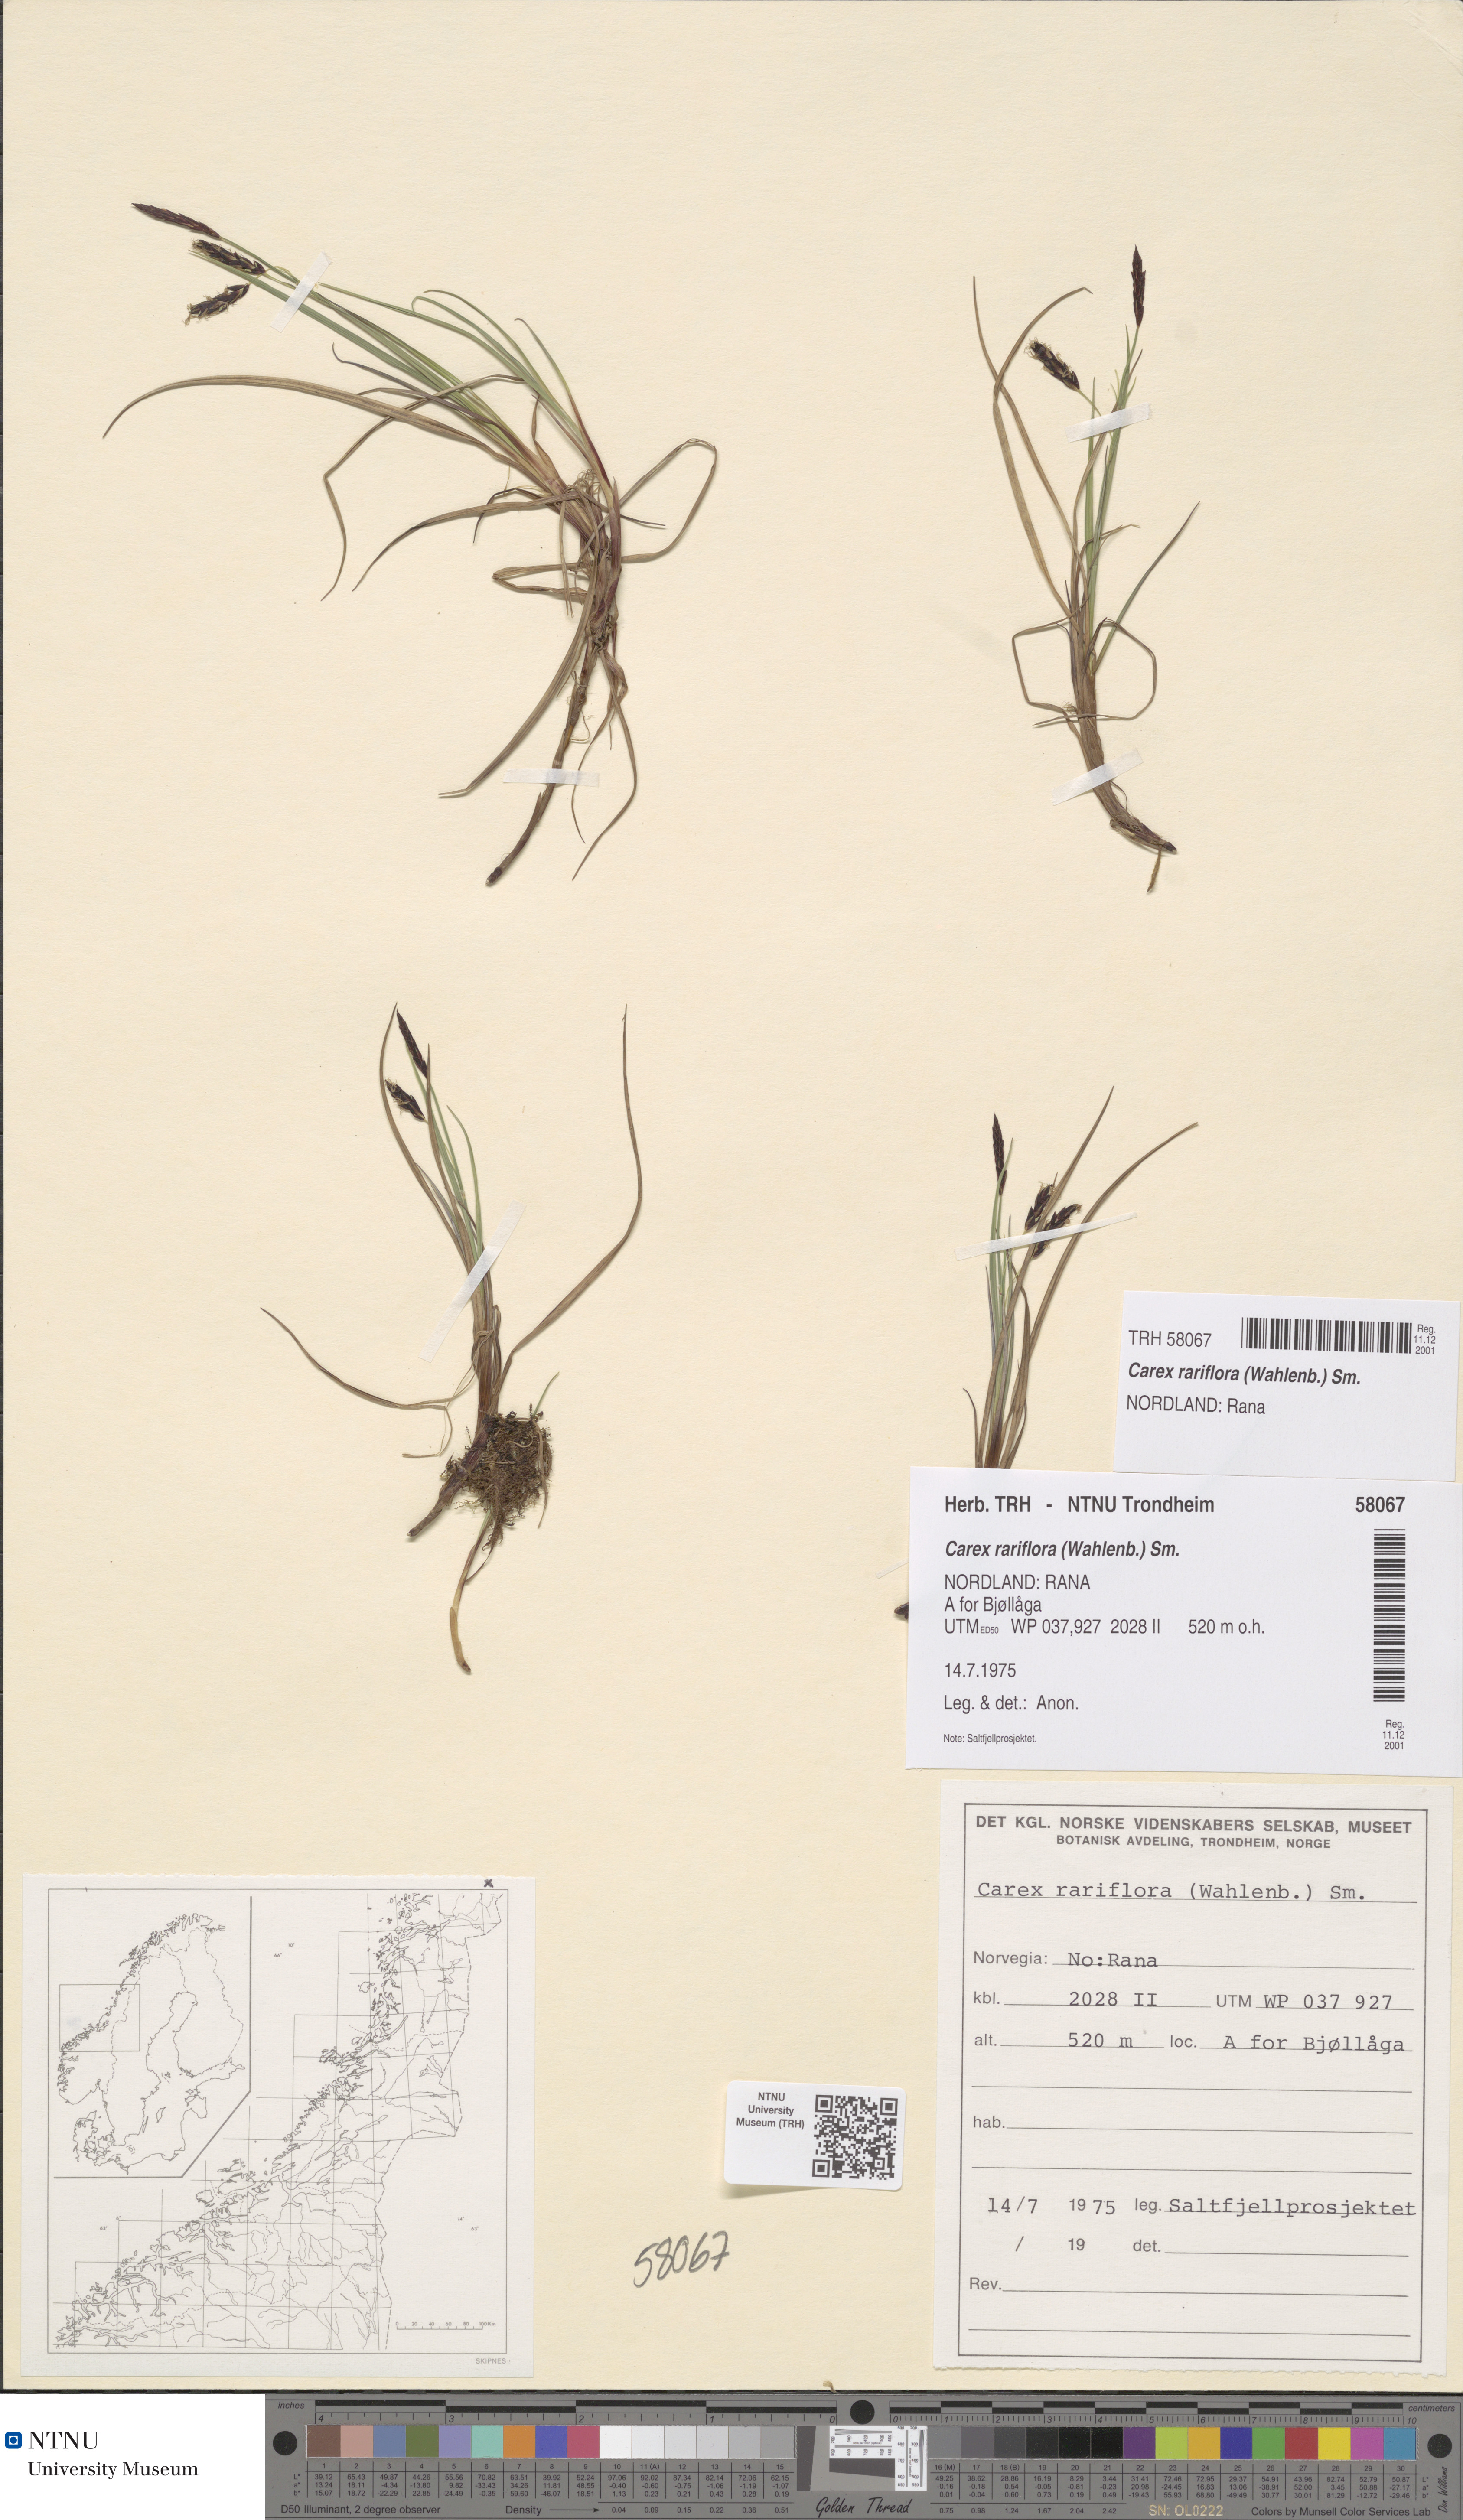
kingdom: Plantae
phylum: Tracheophyta
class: Liliopsida
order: Poales
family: Cyperaceae
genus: Carex
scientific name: Carex rariflora
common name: Loose-flowered alpine sedge
